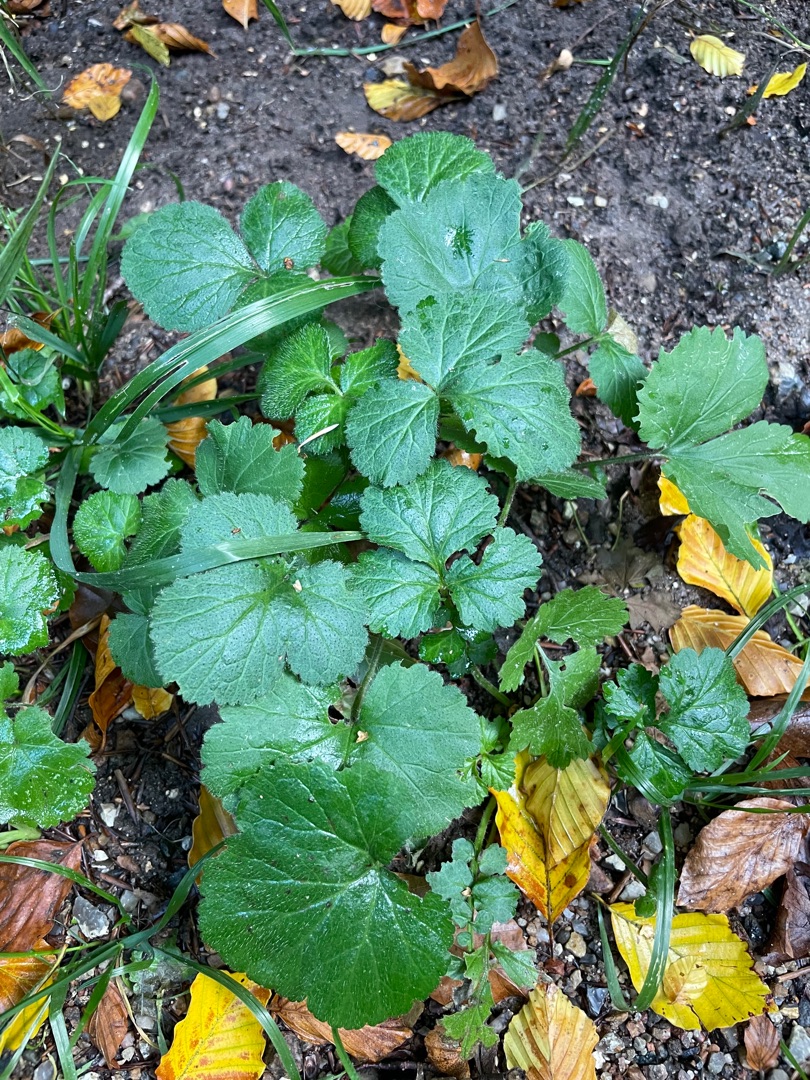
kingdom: Plantae
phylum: Tracheophyta
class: Magnoliopsida
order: Rosales
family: Rosaceae
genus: Geum
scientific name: Geum urbanum
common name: Feber-nellikerod
